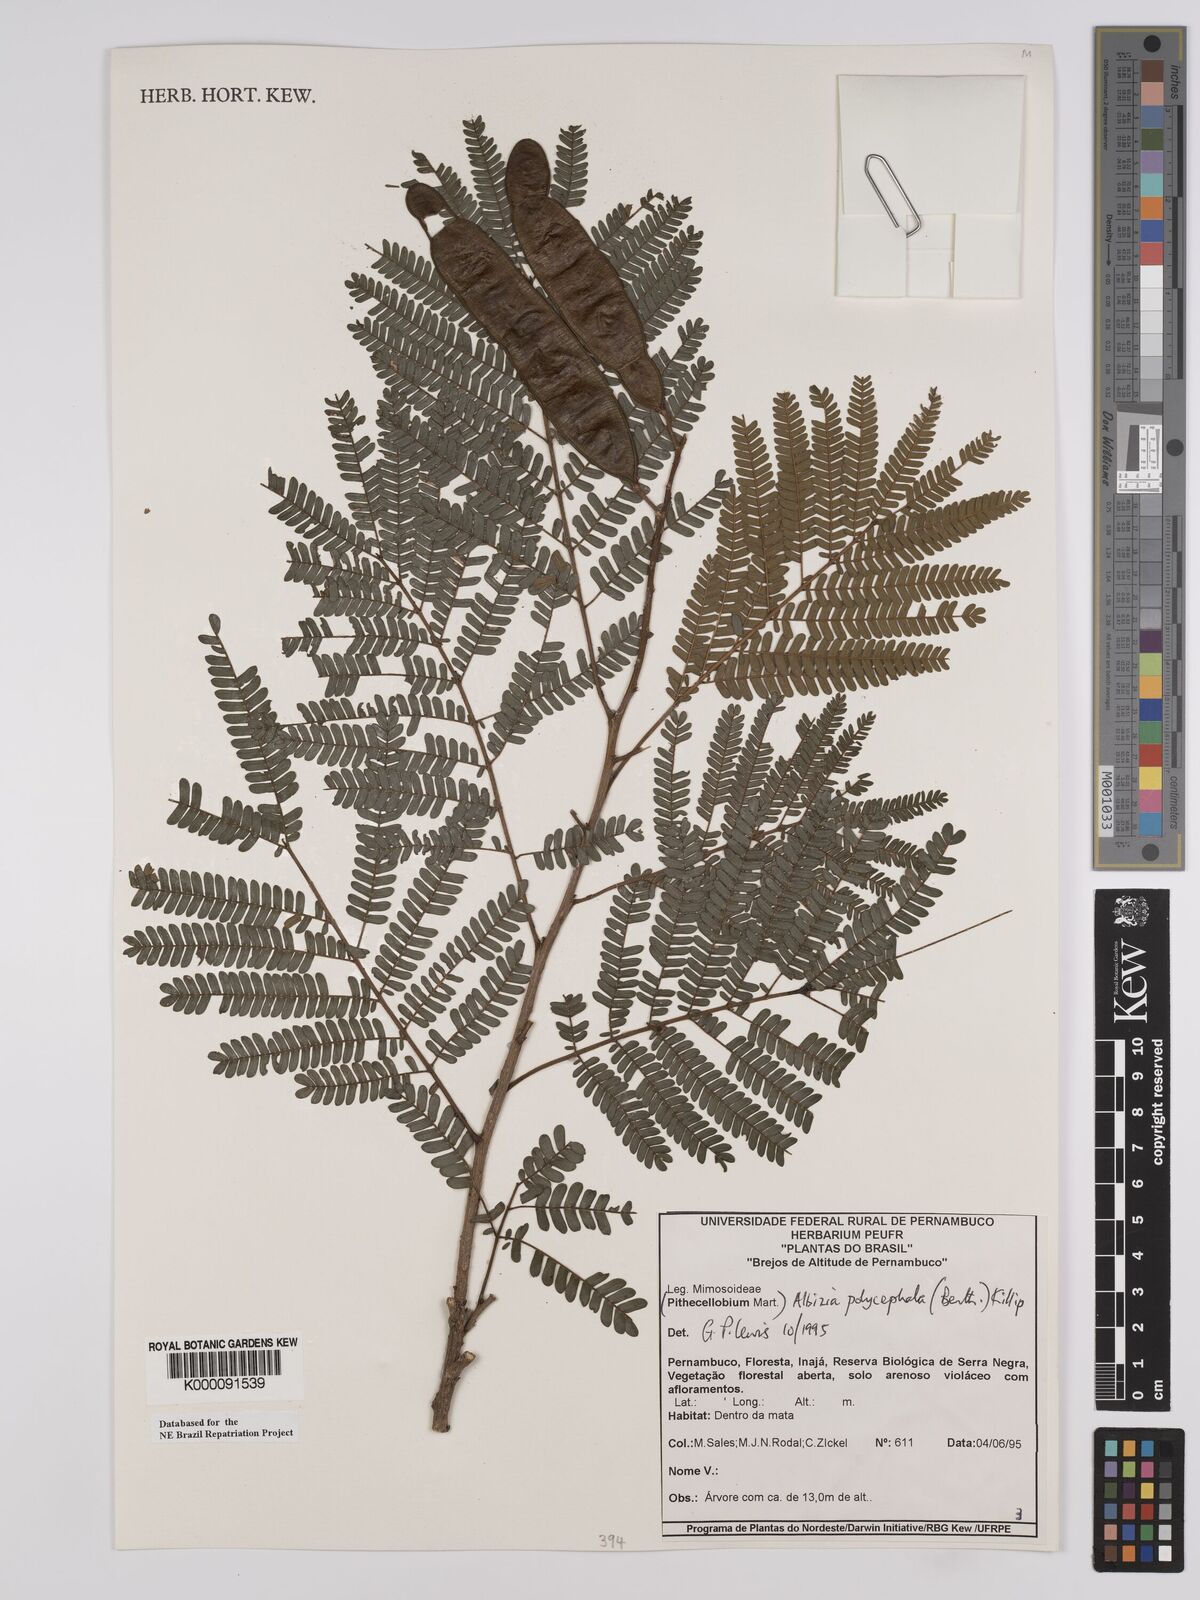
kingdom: Plantae
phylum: Tracheophyta
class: Magnoliopsida
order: Fabales
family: Fabaceae
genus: Albizia
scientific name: Albizia polycephala
